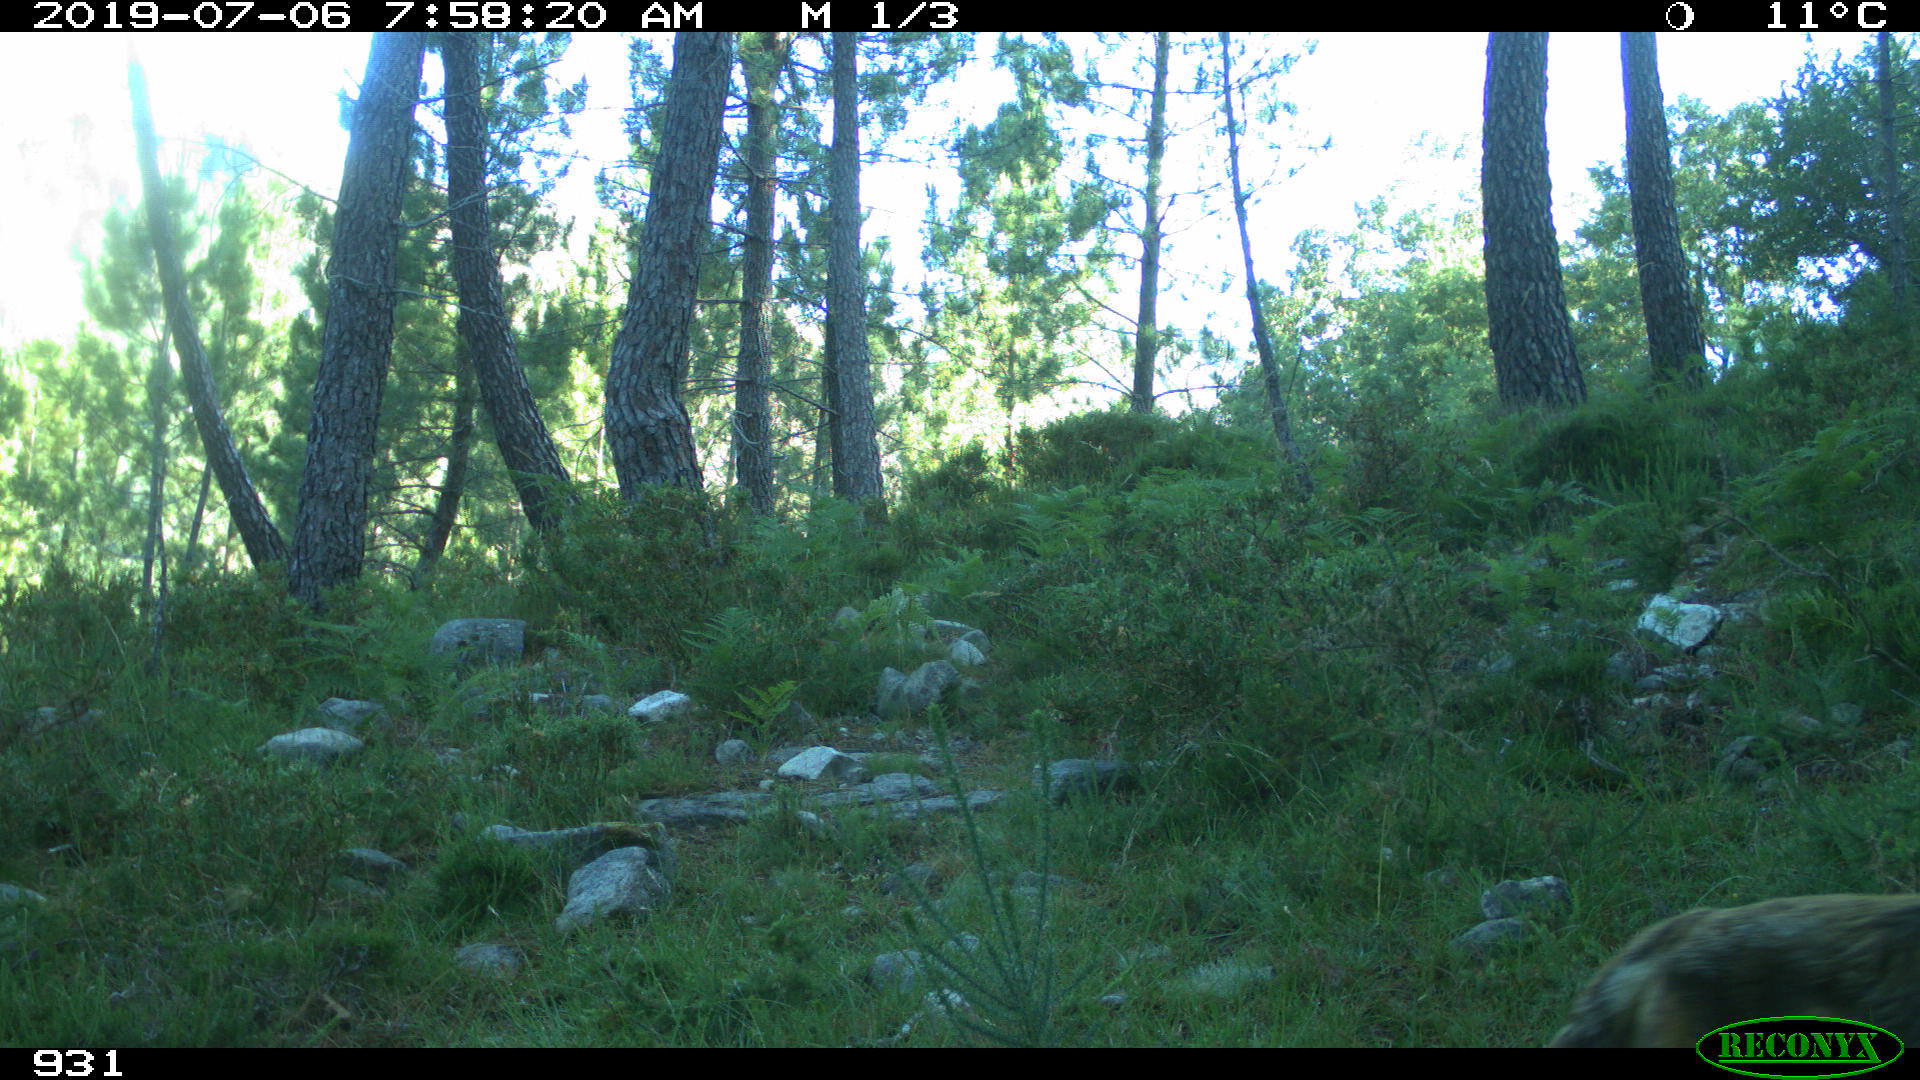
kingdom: Animalia
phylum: Chordata
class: Mammalia
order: Artiodactyla
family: Cervidae
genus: Capreolus
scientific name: Capreolus capreolus
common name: Western roe deer
